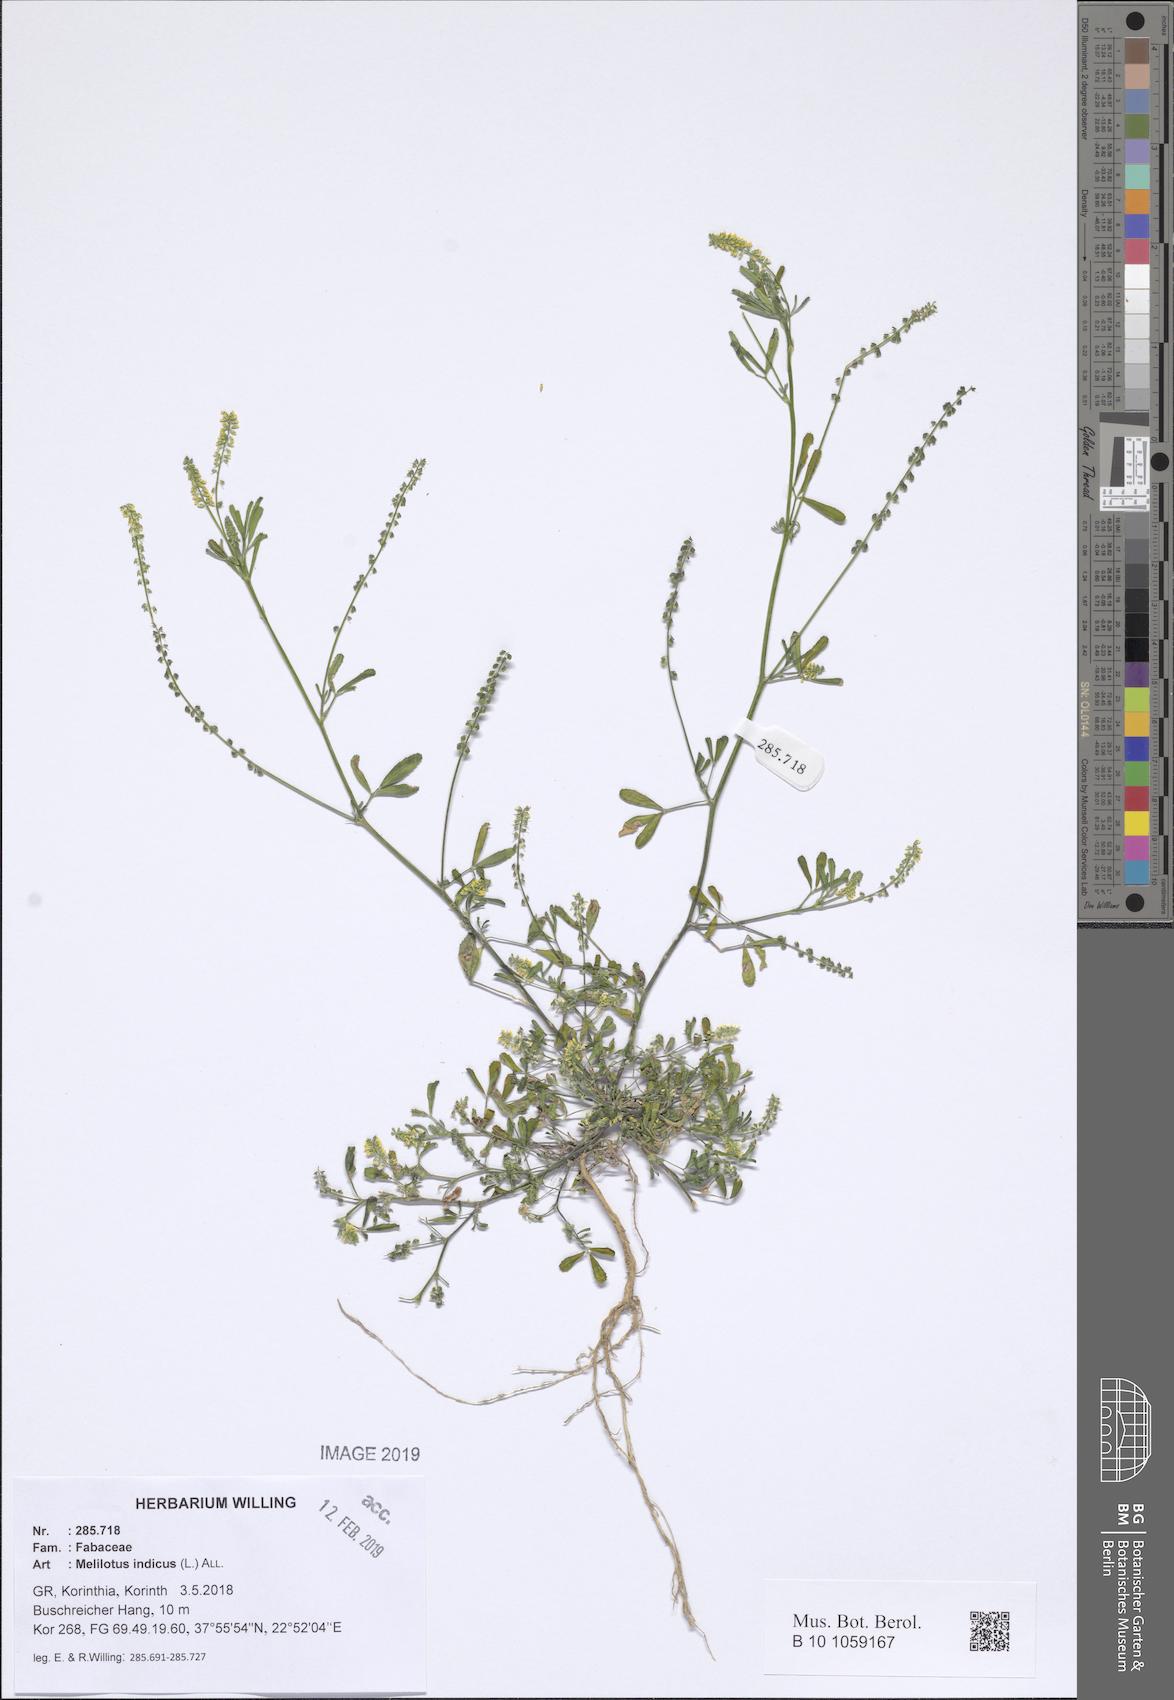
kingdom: Plantae
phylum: Tracheophyta
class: Magnoliopsida
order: Fabales
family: Fabaceae
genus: Melilotus
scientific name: Melilotus indicus
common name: Small melilot
